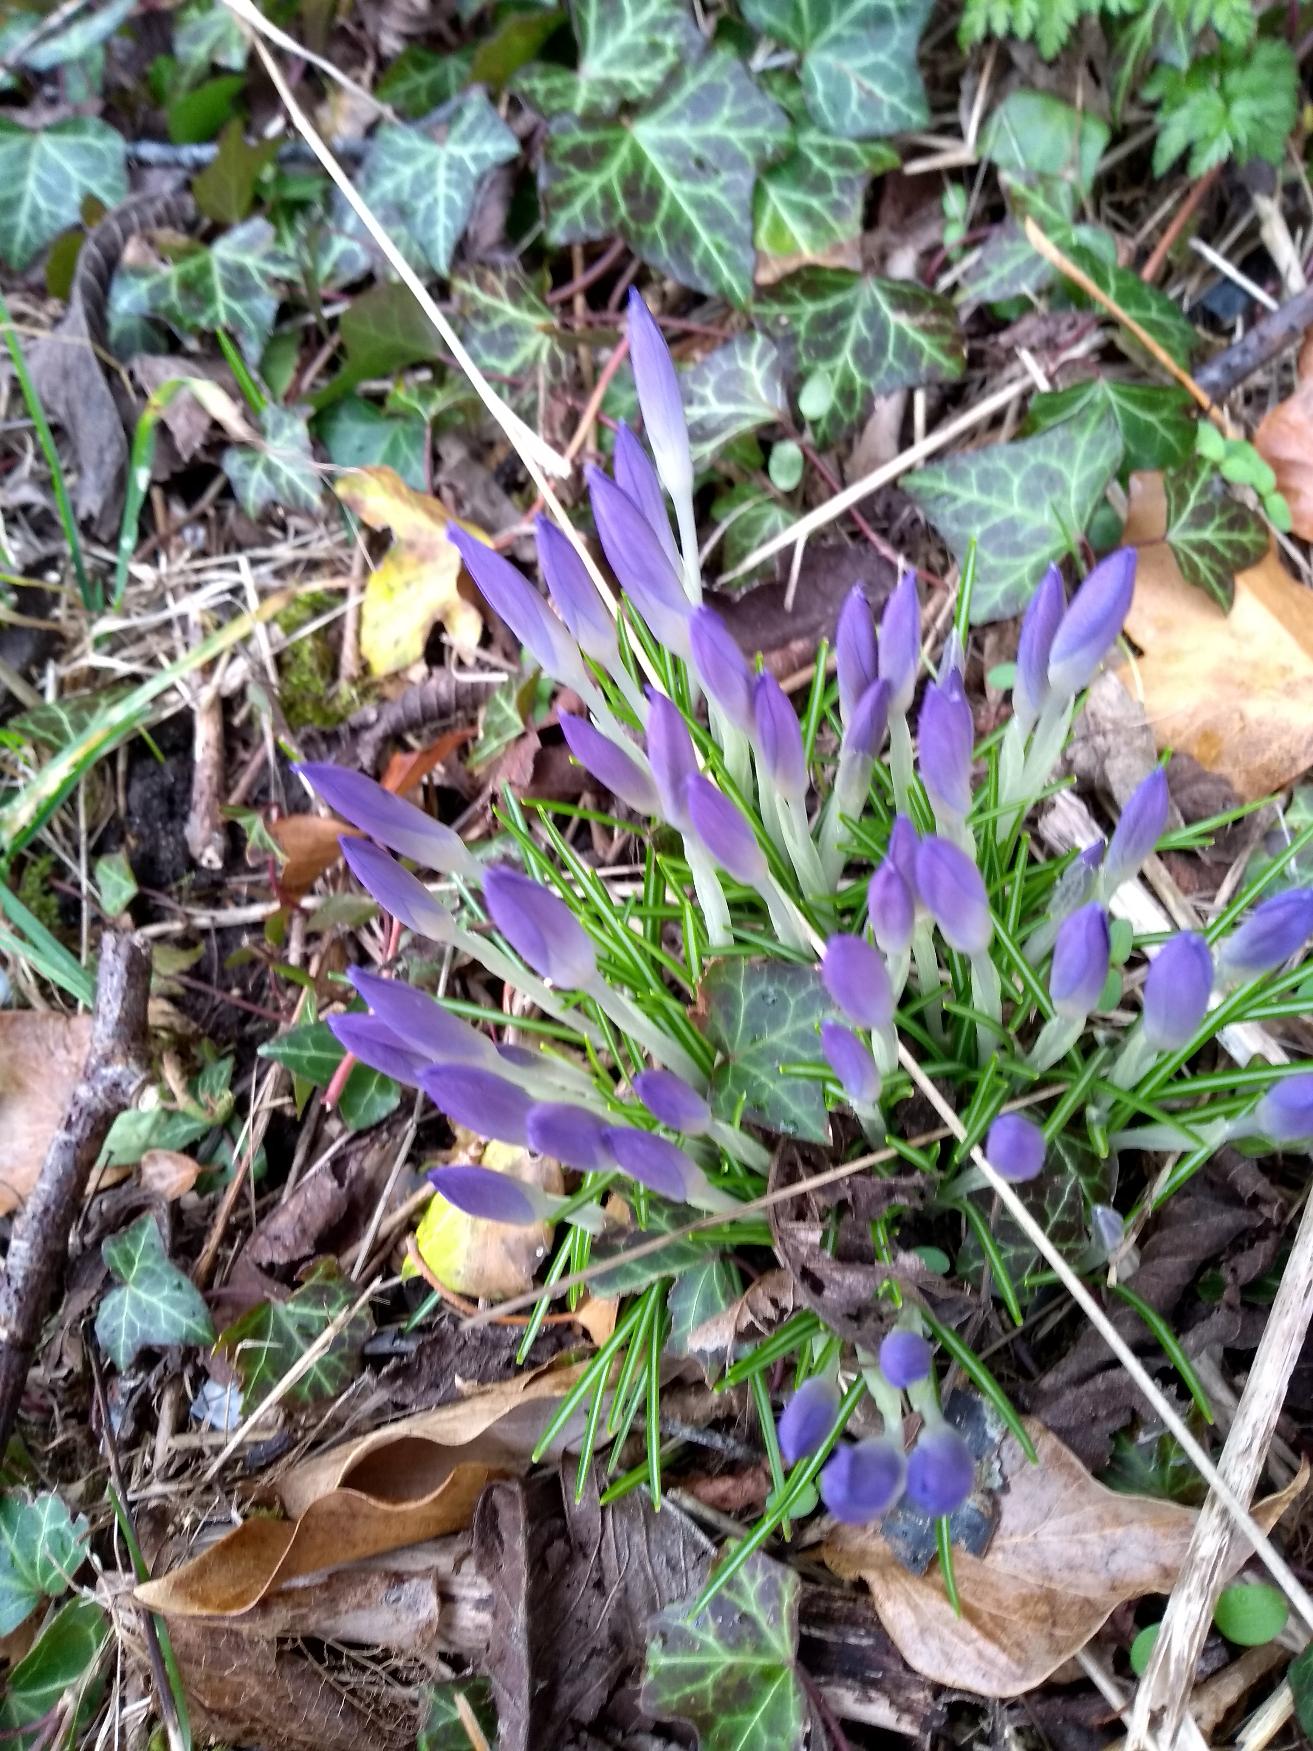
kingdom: Plantae
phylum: Tracheophyta
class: Liliopsida
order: Asparagales
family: Iridaceae
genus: Crocus
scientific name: Crocus tommasinianus
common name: Sne-krokus
